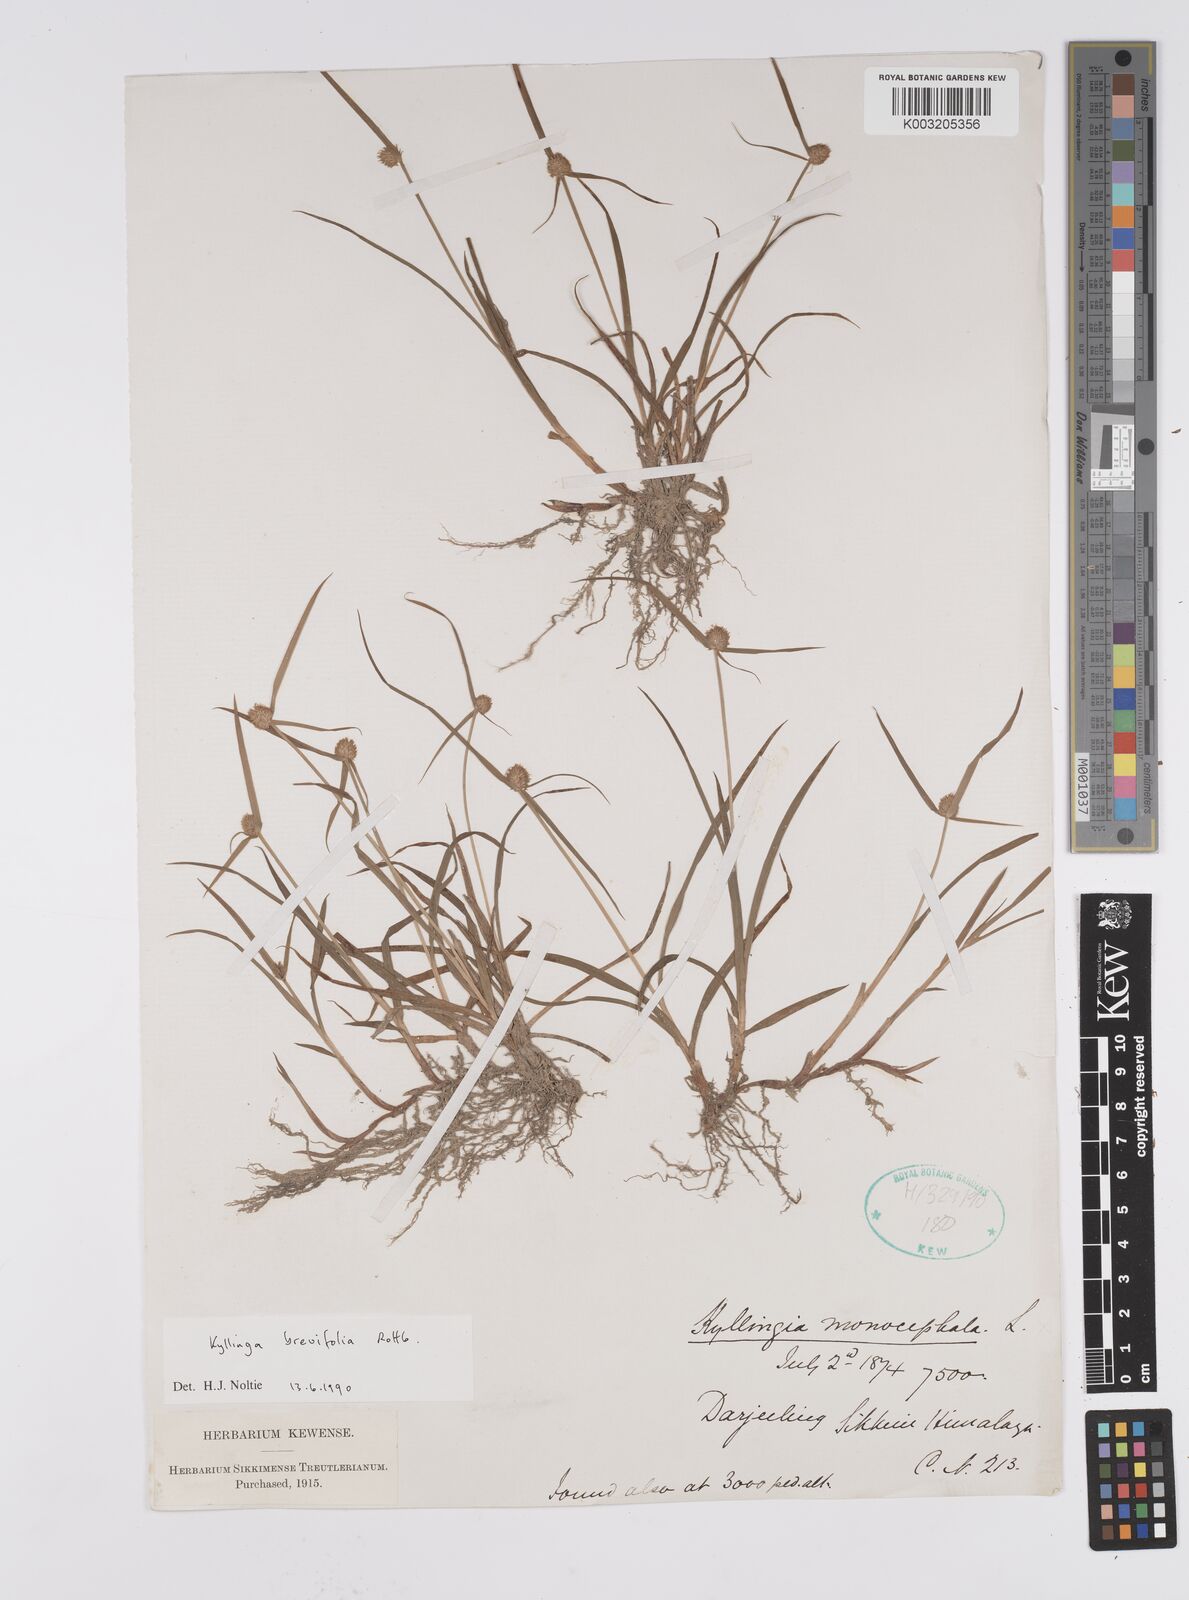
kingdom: Plantae
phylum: Tracheophyta
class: Liliopsida
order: Poales
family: Cyperaceae
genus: Cyperus
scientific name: Cyperus brevifolius
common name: Globe kyllinga
